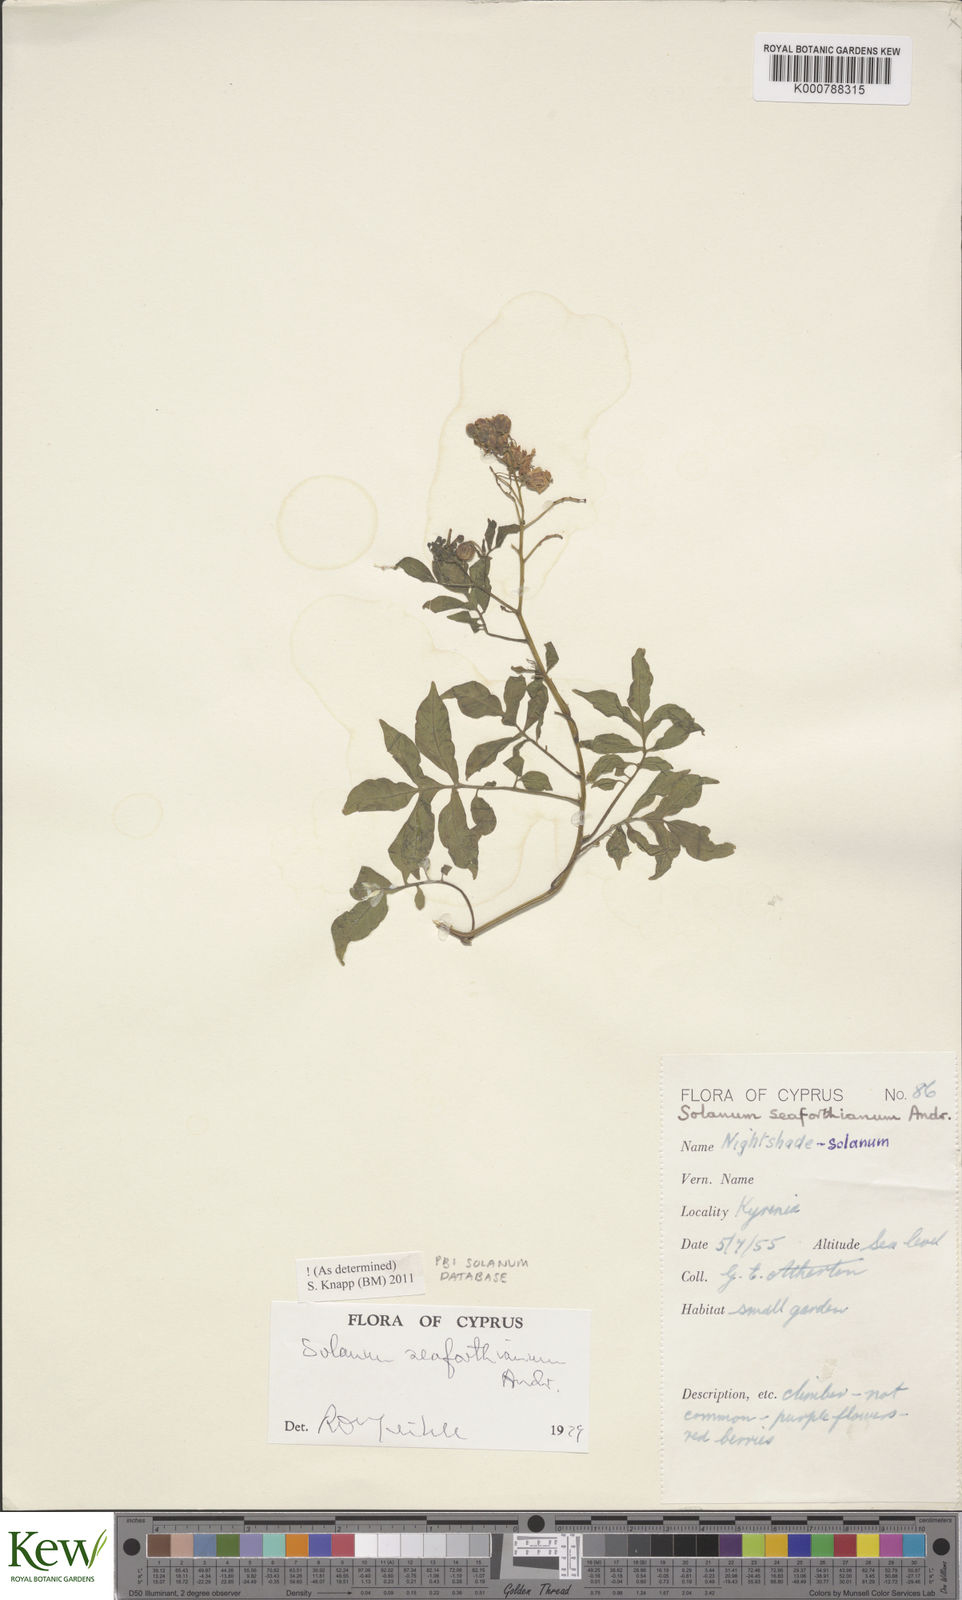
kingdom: Plantae
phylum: Tracheophyta
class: Magnoliopsida
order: Solanales
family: Solanaceae
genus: Solanum
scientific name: Solanum seaforthianum
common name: Brazilian nightshade
